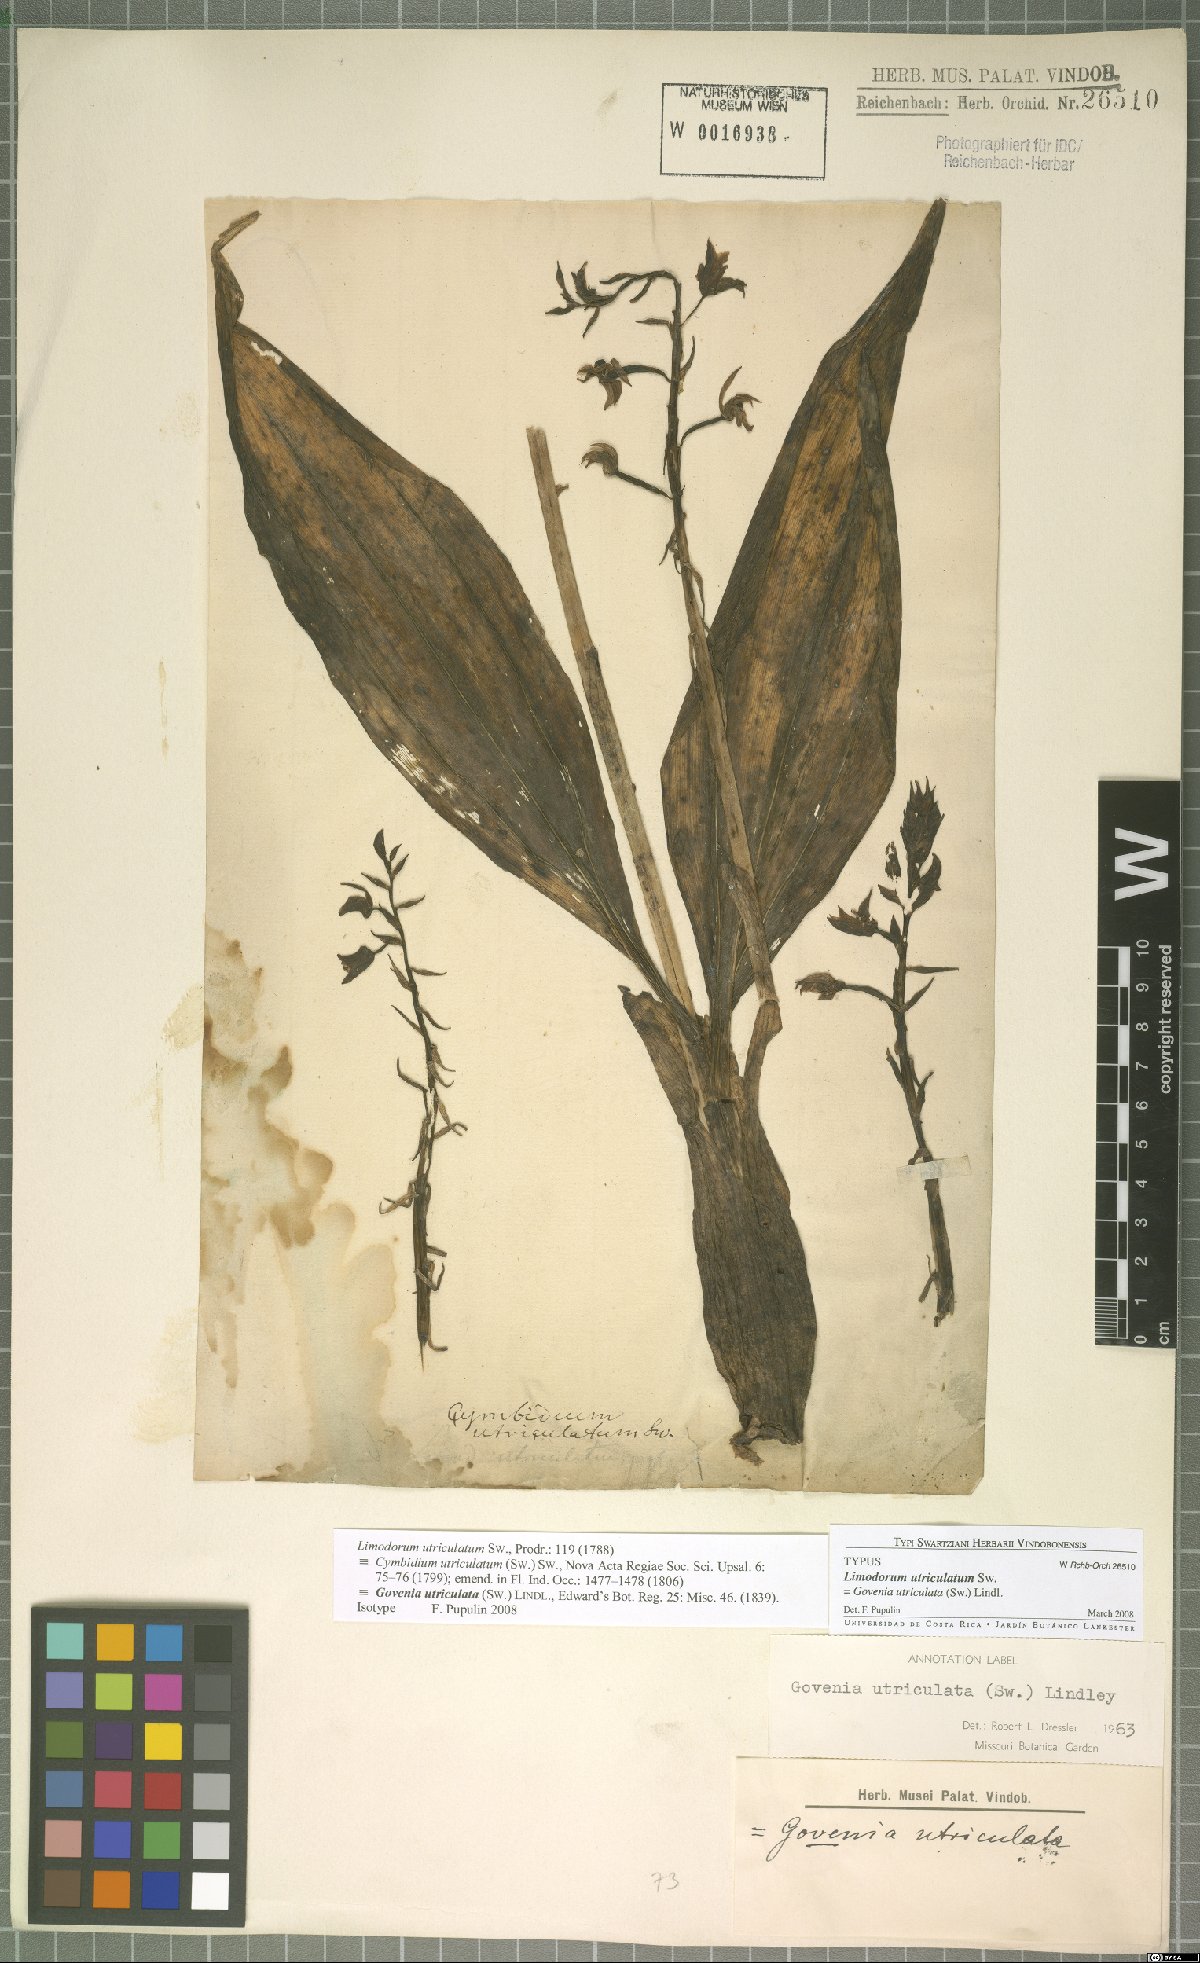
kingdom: Plantae
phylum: Tracheophyta
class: Liliopsida
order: Asparagales
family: Orchidaceae
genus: Govenia
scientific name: Govenia utriculata
